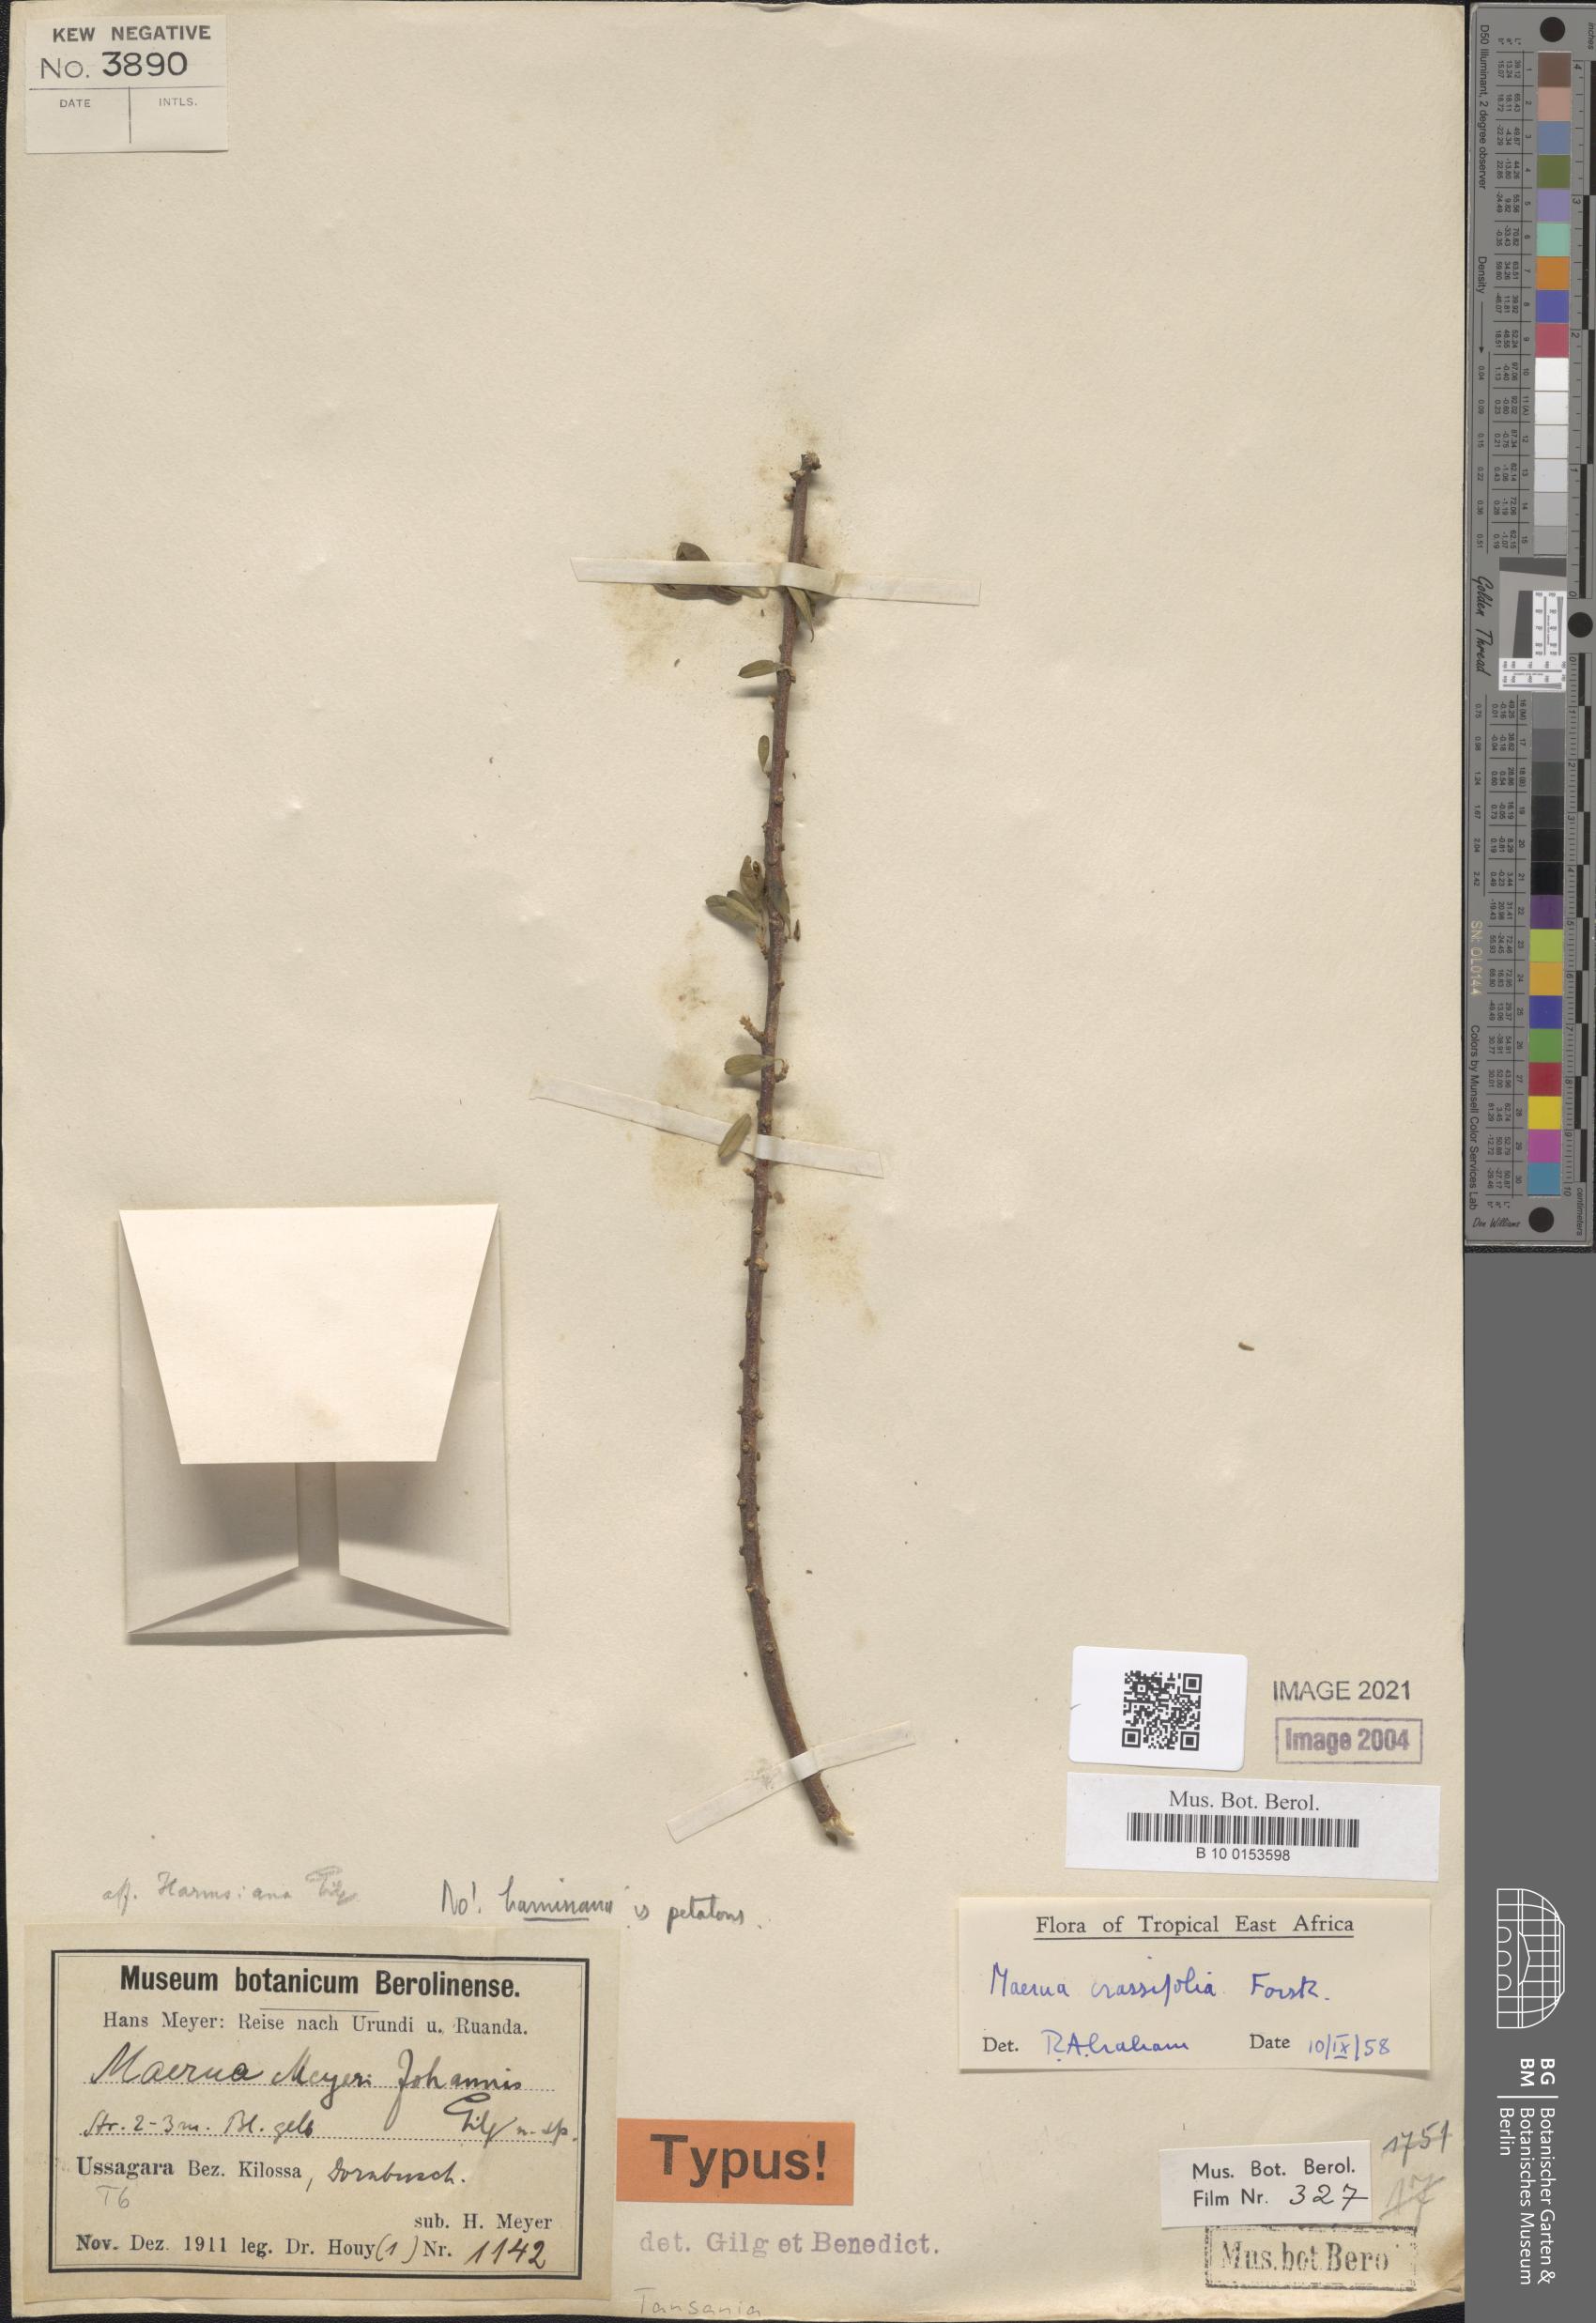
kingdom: Plantae
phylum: Tracheophyta
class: Magnoliopsida
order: Brassicales
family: Capparaceae
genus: Maerua
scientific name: Maerua crassifolia
